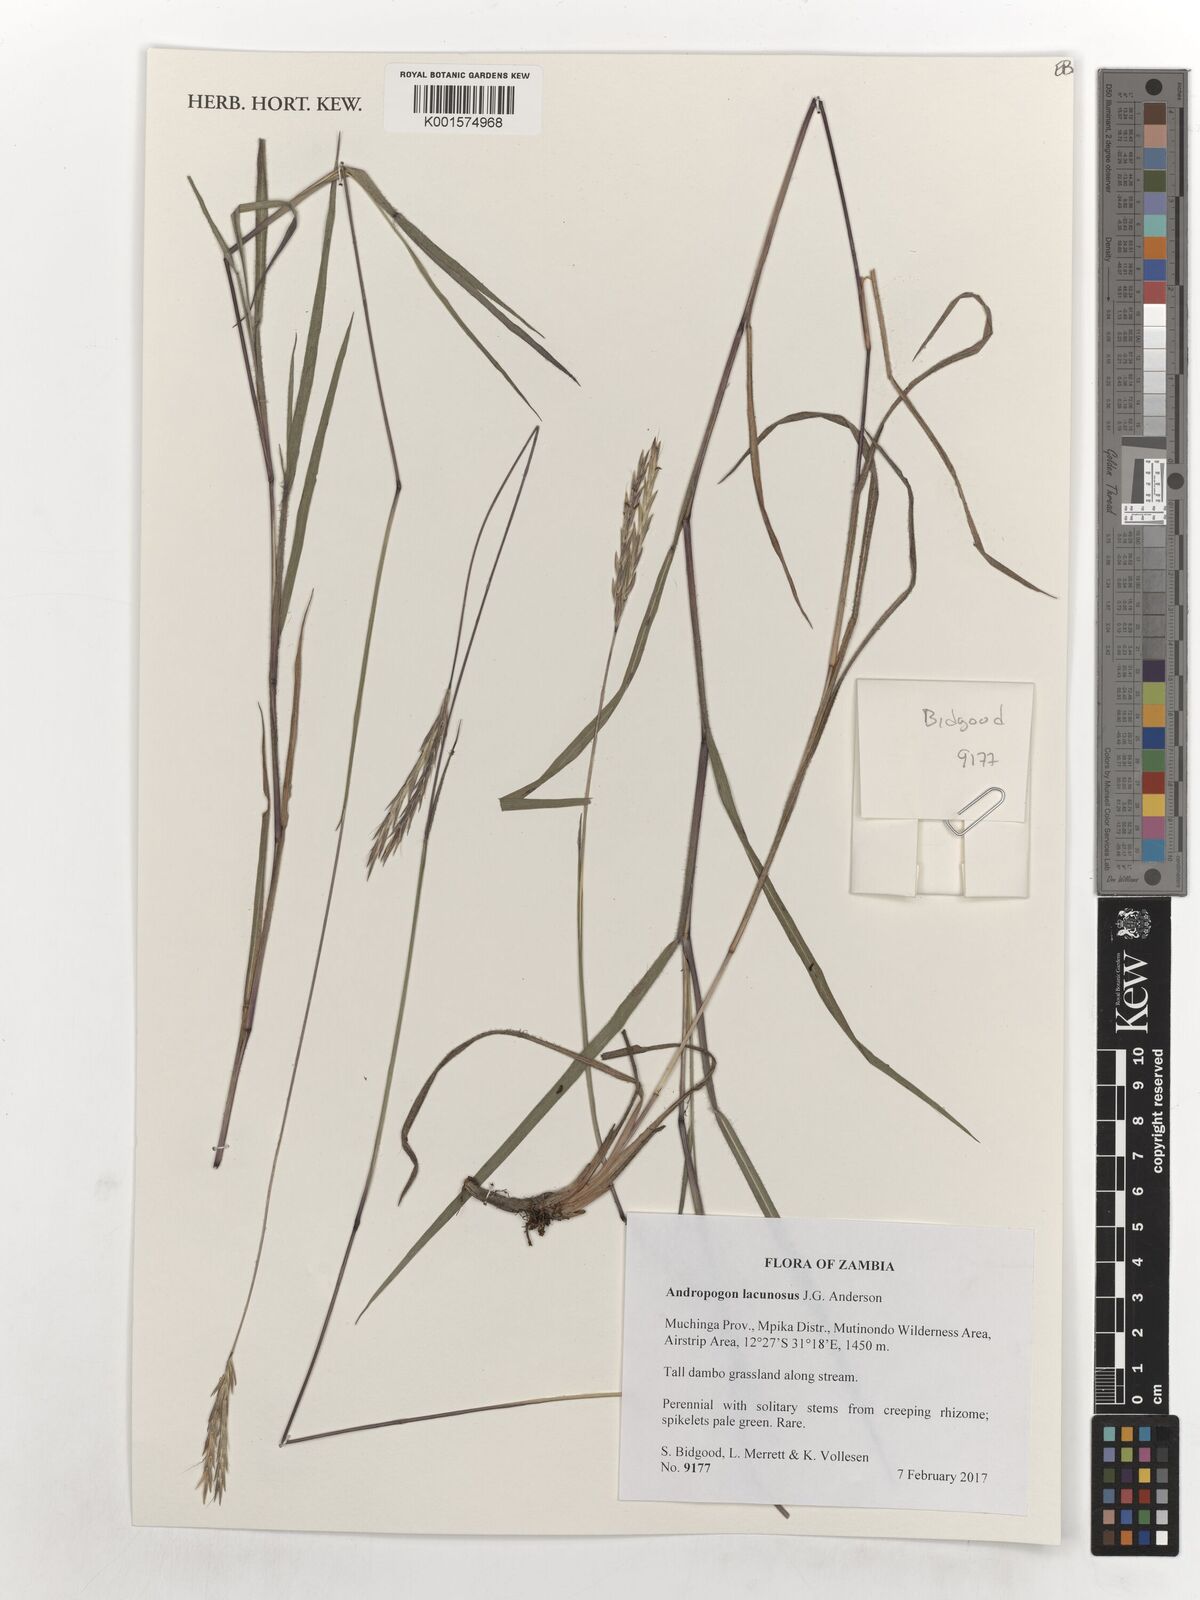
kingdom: Plantae
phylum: Tracheophyta
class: Liliopsida
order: Poales
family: Poaceae
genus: Andropogon
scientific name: Andropogon lacunosus
